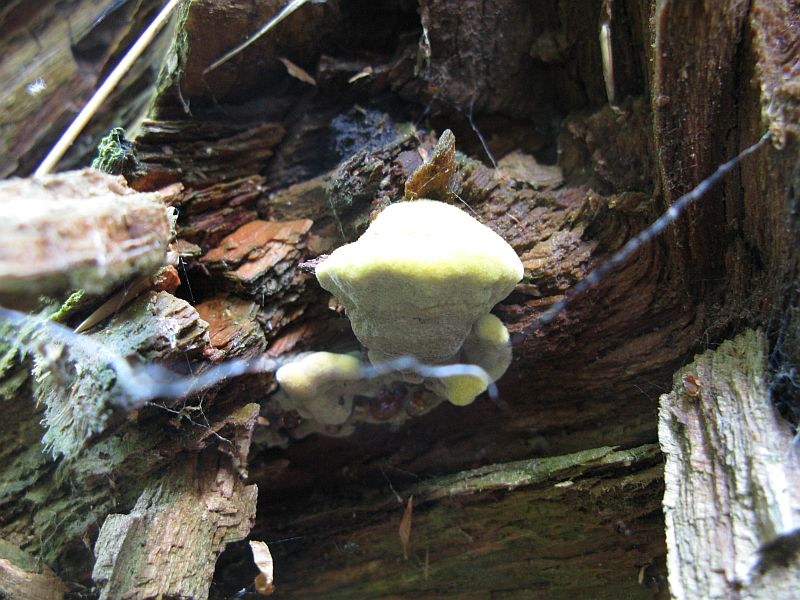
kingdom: Fungi
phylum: Basidiomycota
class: Agaricomycetes
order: Polyporales
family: Laetiporaceae
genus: Phaeolus
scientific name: Phaeolus schweinitzii
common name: brunporesvamp
